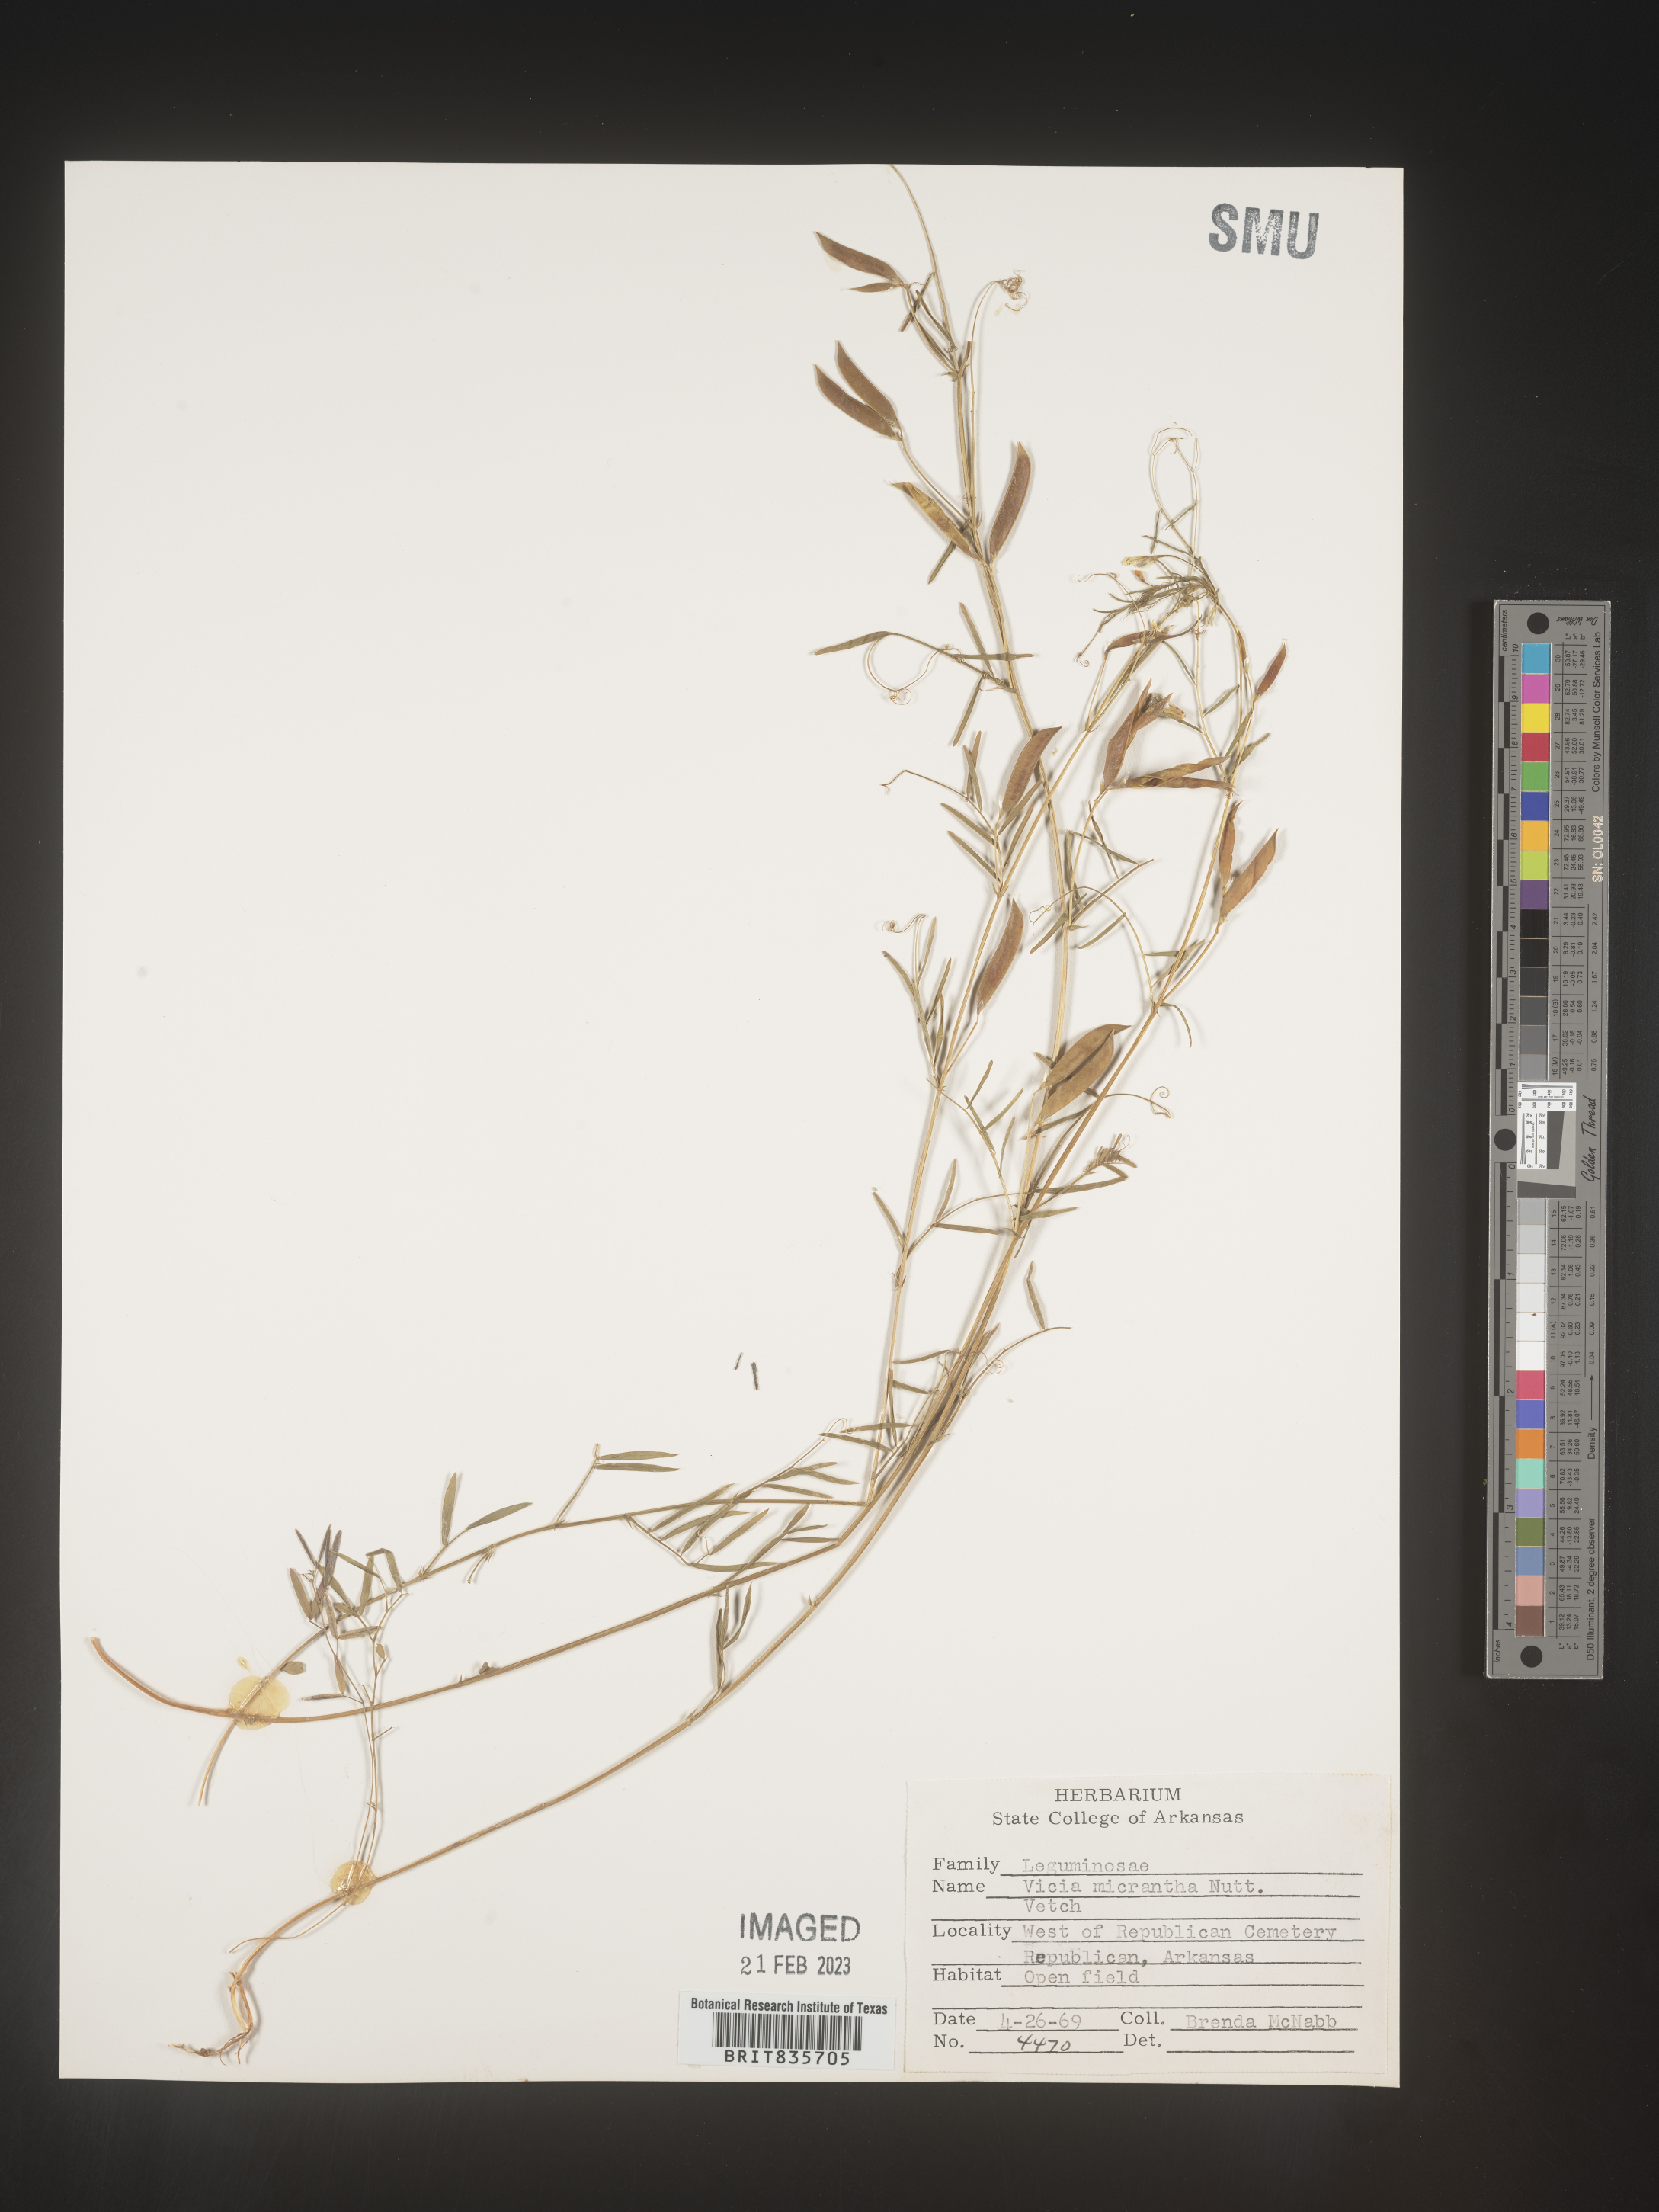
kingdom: Plantae
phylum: Tracheophyta
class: Magnoliopsida
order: Fabales
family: Fabaceae
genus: Vicia
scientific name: Vicia ludoviciana
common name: Louisiana vetch
